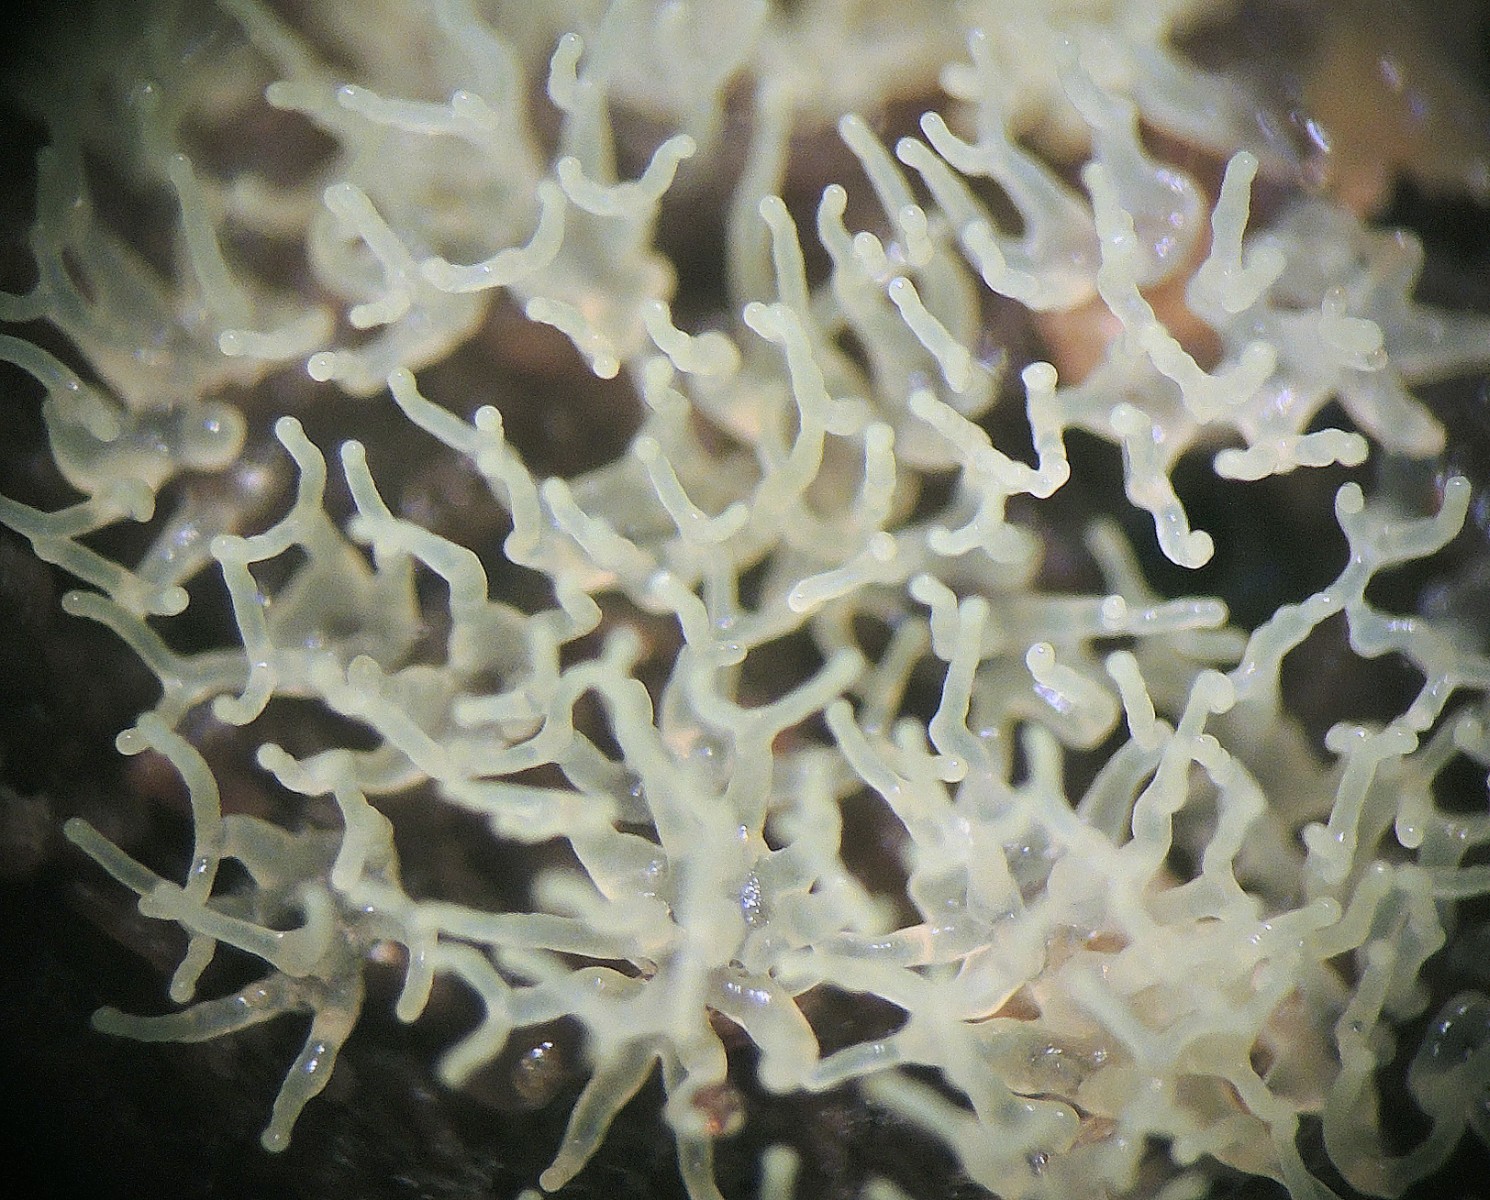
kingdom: Protozoa
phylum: Mycetozoa
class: Protosteliomycetes
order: Ceratiomyxales
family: Ceratiomyxaceae
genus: Ceratiomyxa
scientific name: Ceratiomyxa fruticulosa
